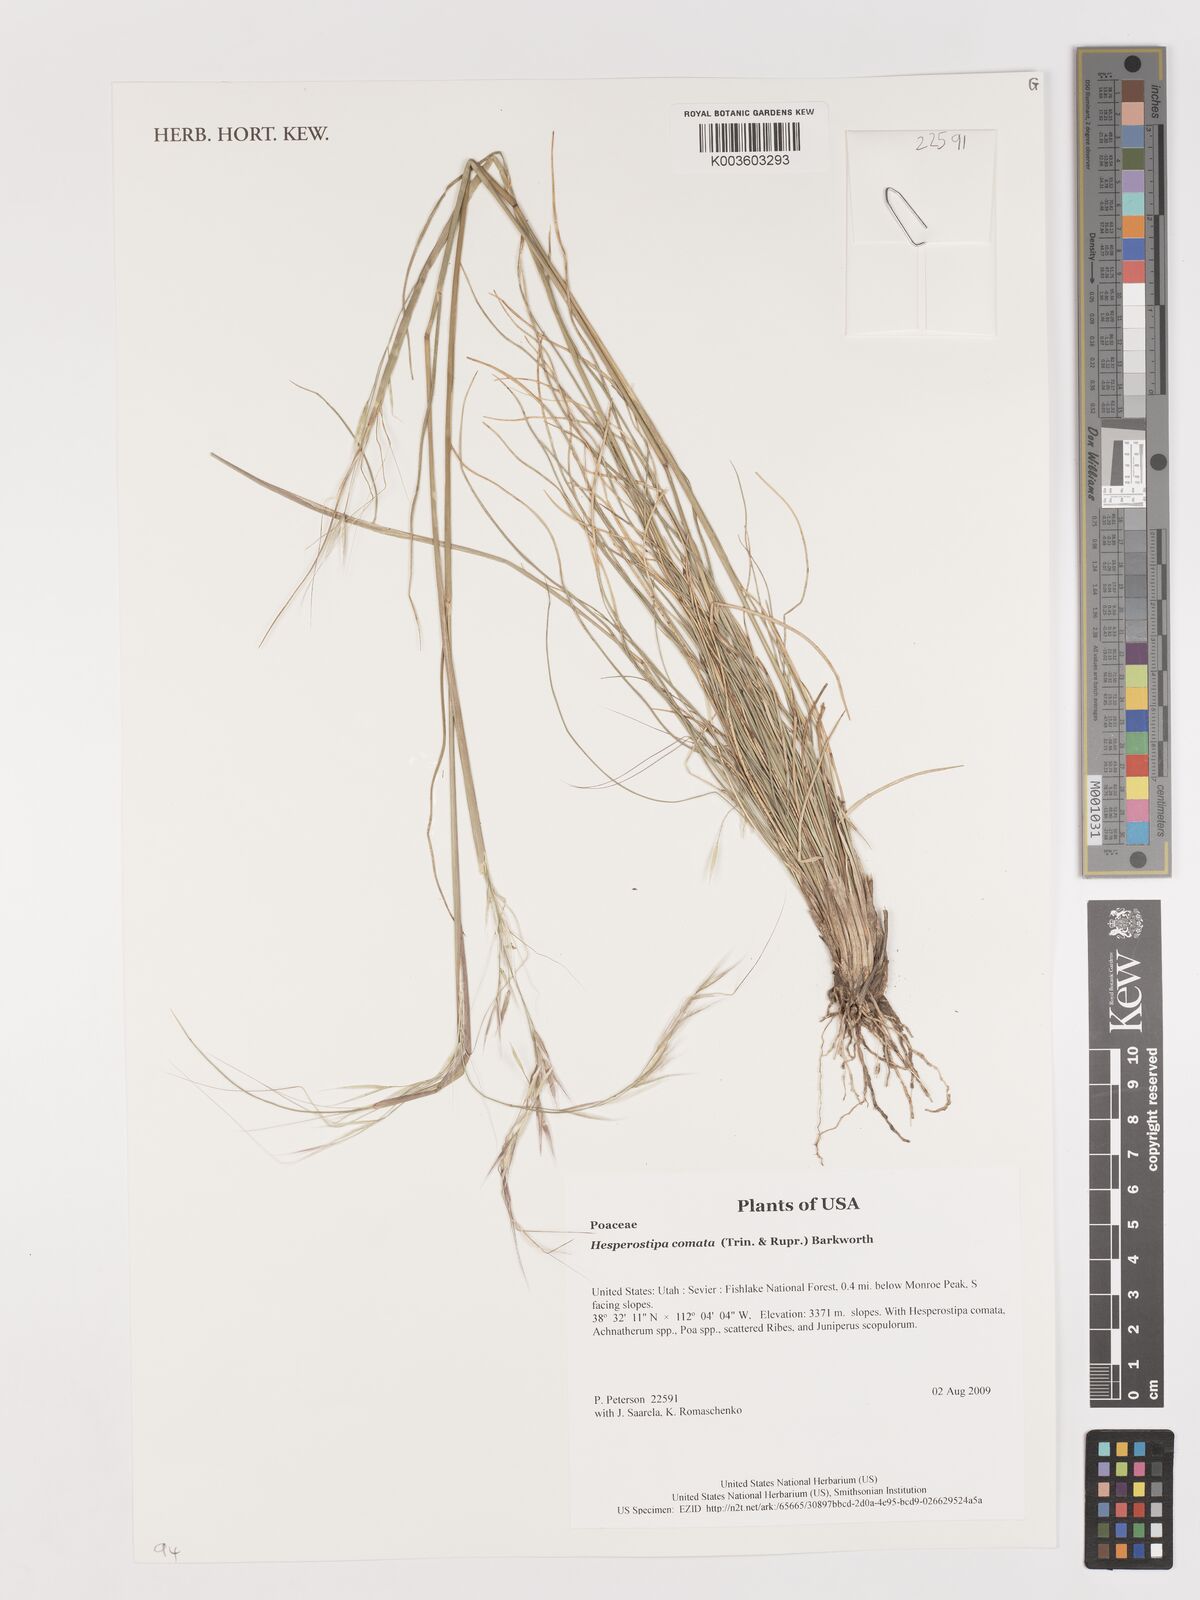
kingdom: Plantae
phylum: Tracheophyta
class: Liliopsida
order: Poales
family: Poaceae
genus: Stipa
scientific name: Stipa
